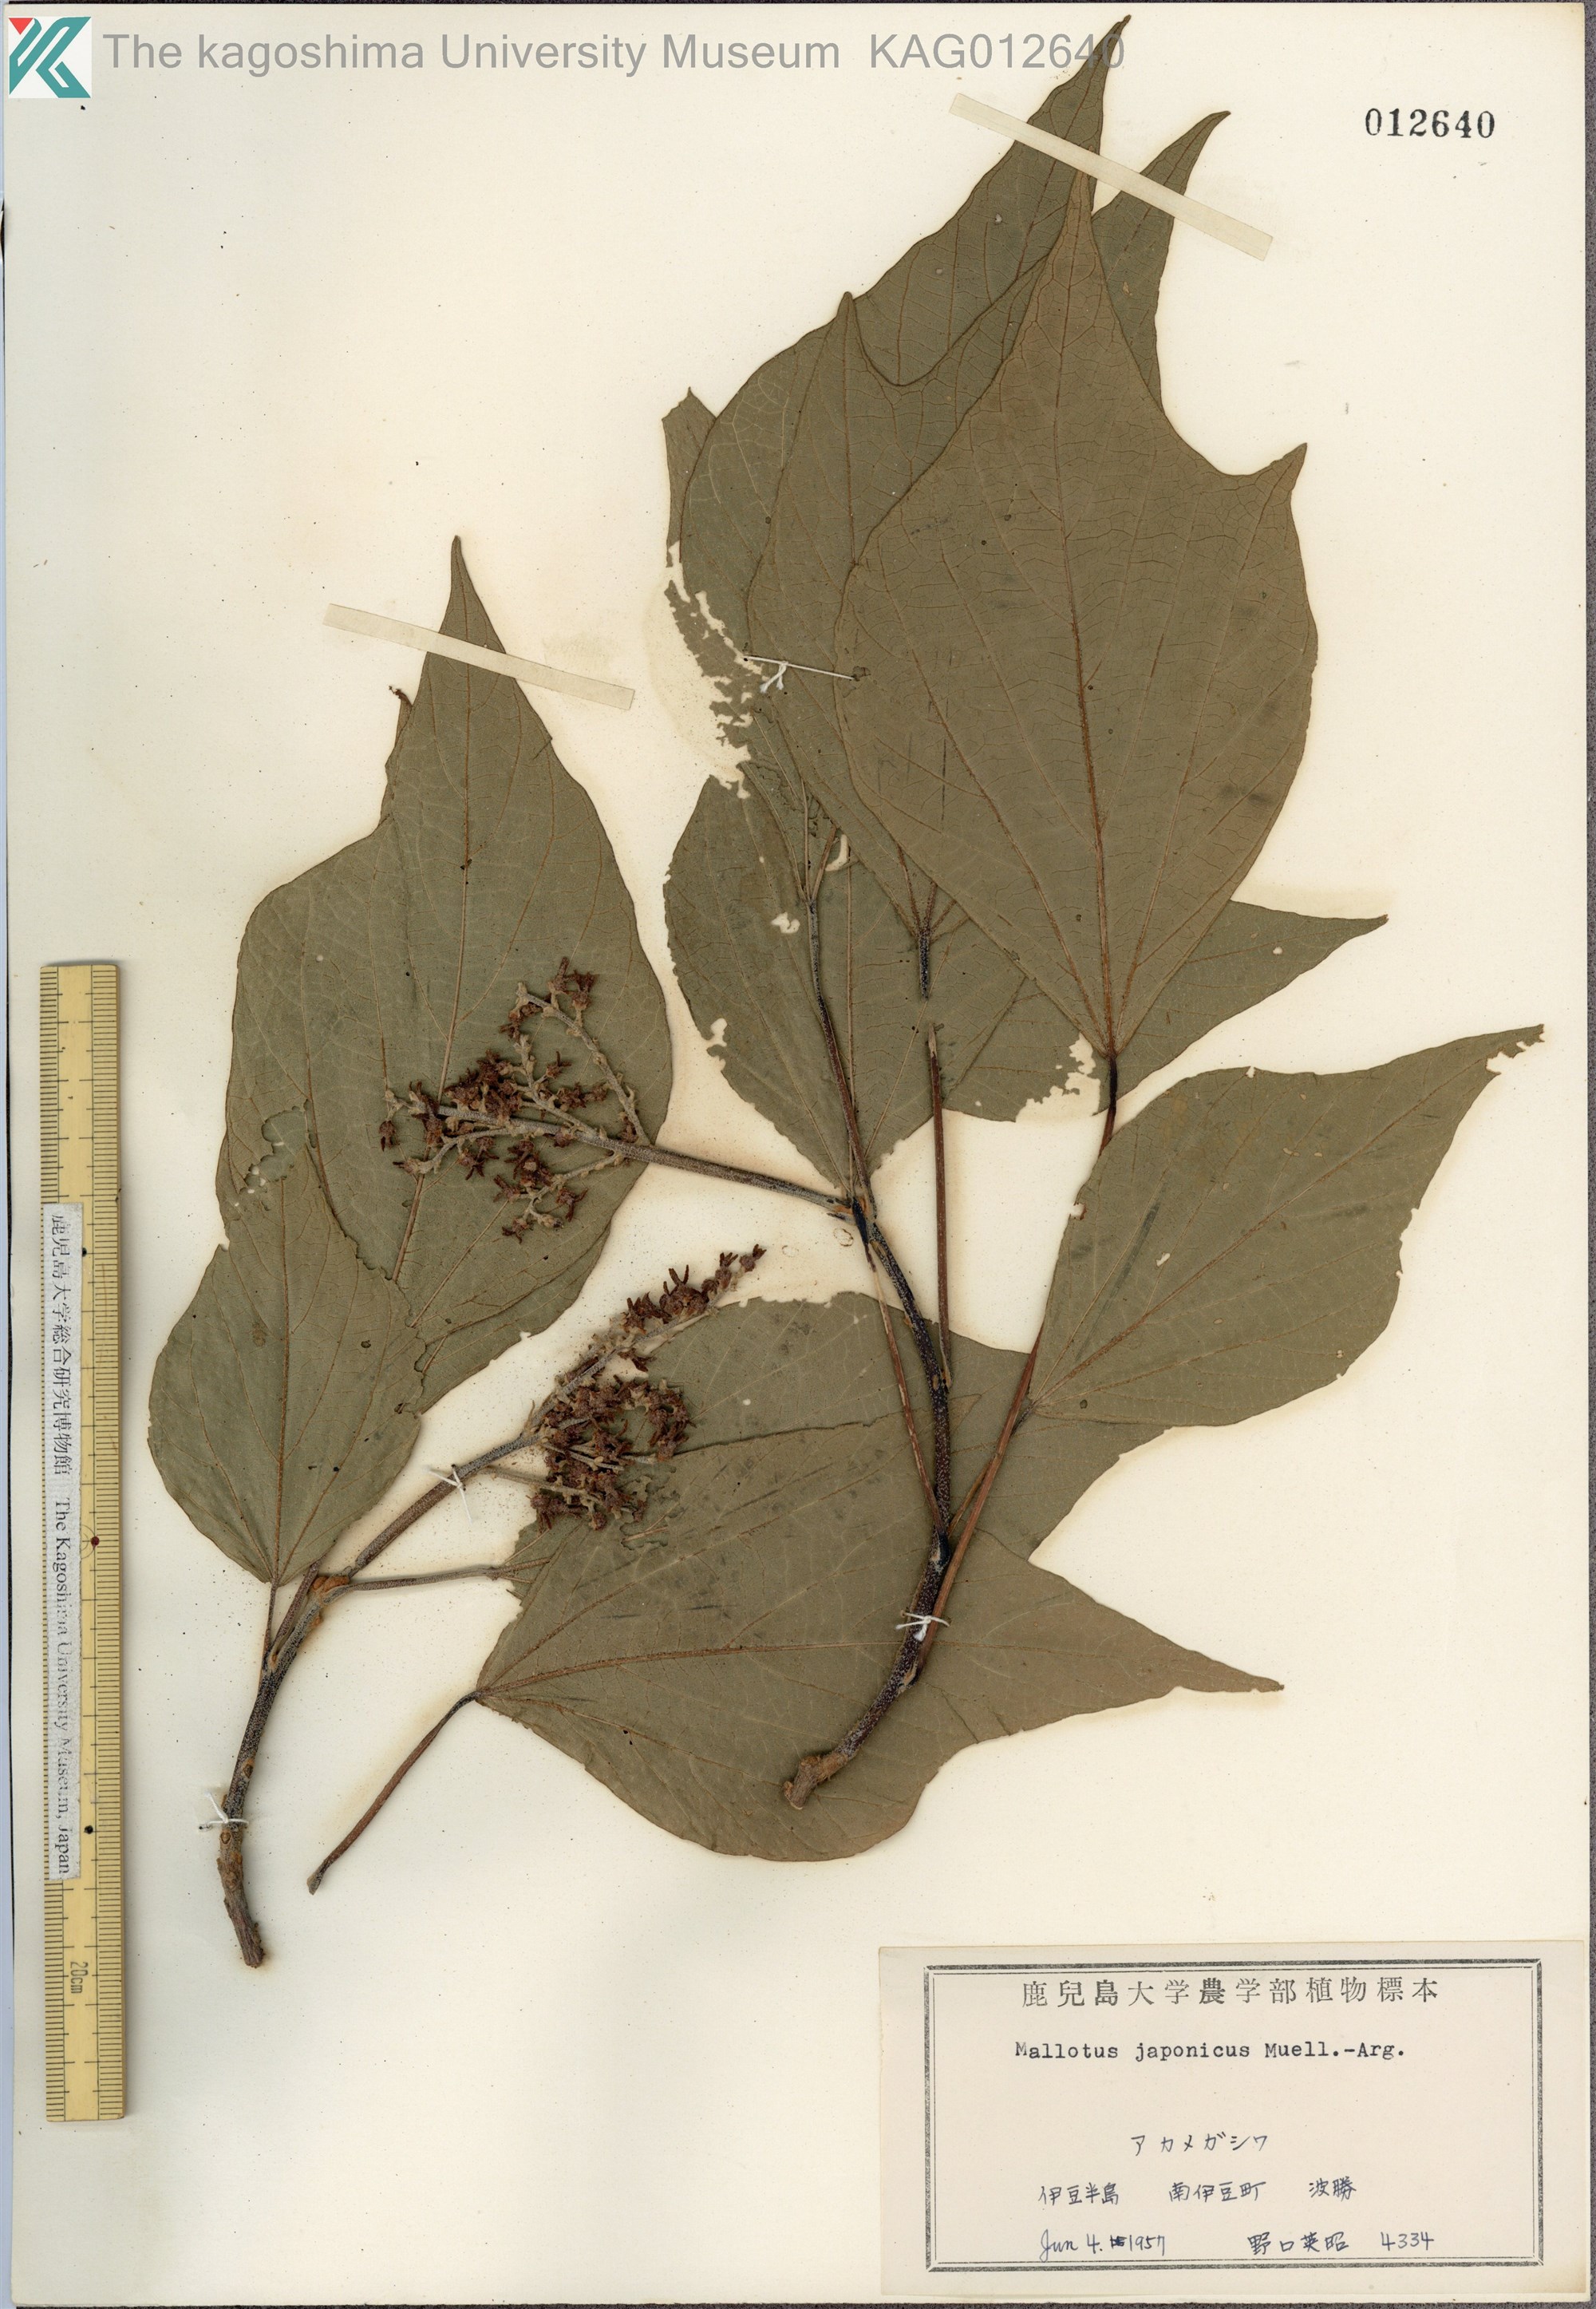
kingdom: Plantae
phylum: Tracheophyta
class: Magnoliopsida
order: Malpighiales
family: Euphorbiaceae
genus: Mallotus
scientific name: Mallotus japonicus
